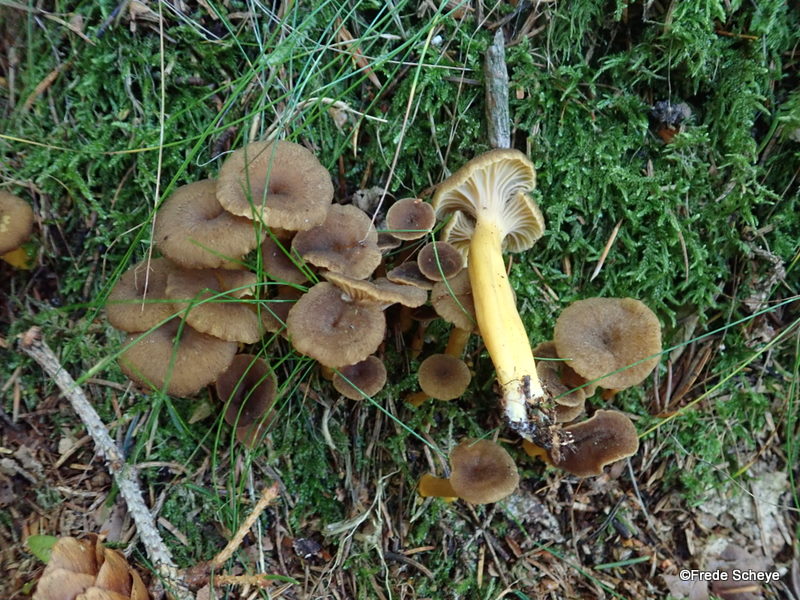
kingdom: Fungi
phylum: Basidiomycota
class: Agaricomycetes
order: Cantharellales
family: Hydnaceae
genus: Craterellus
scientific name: Craterellus tubaeformis
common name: tragt-kantarel
